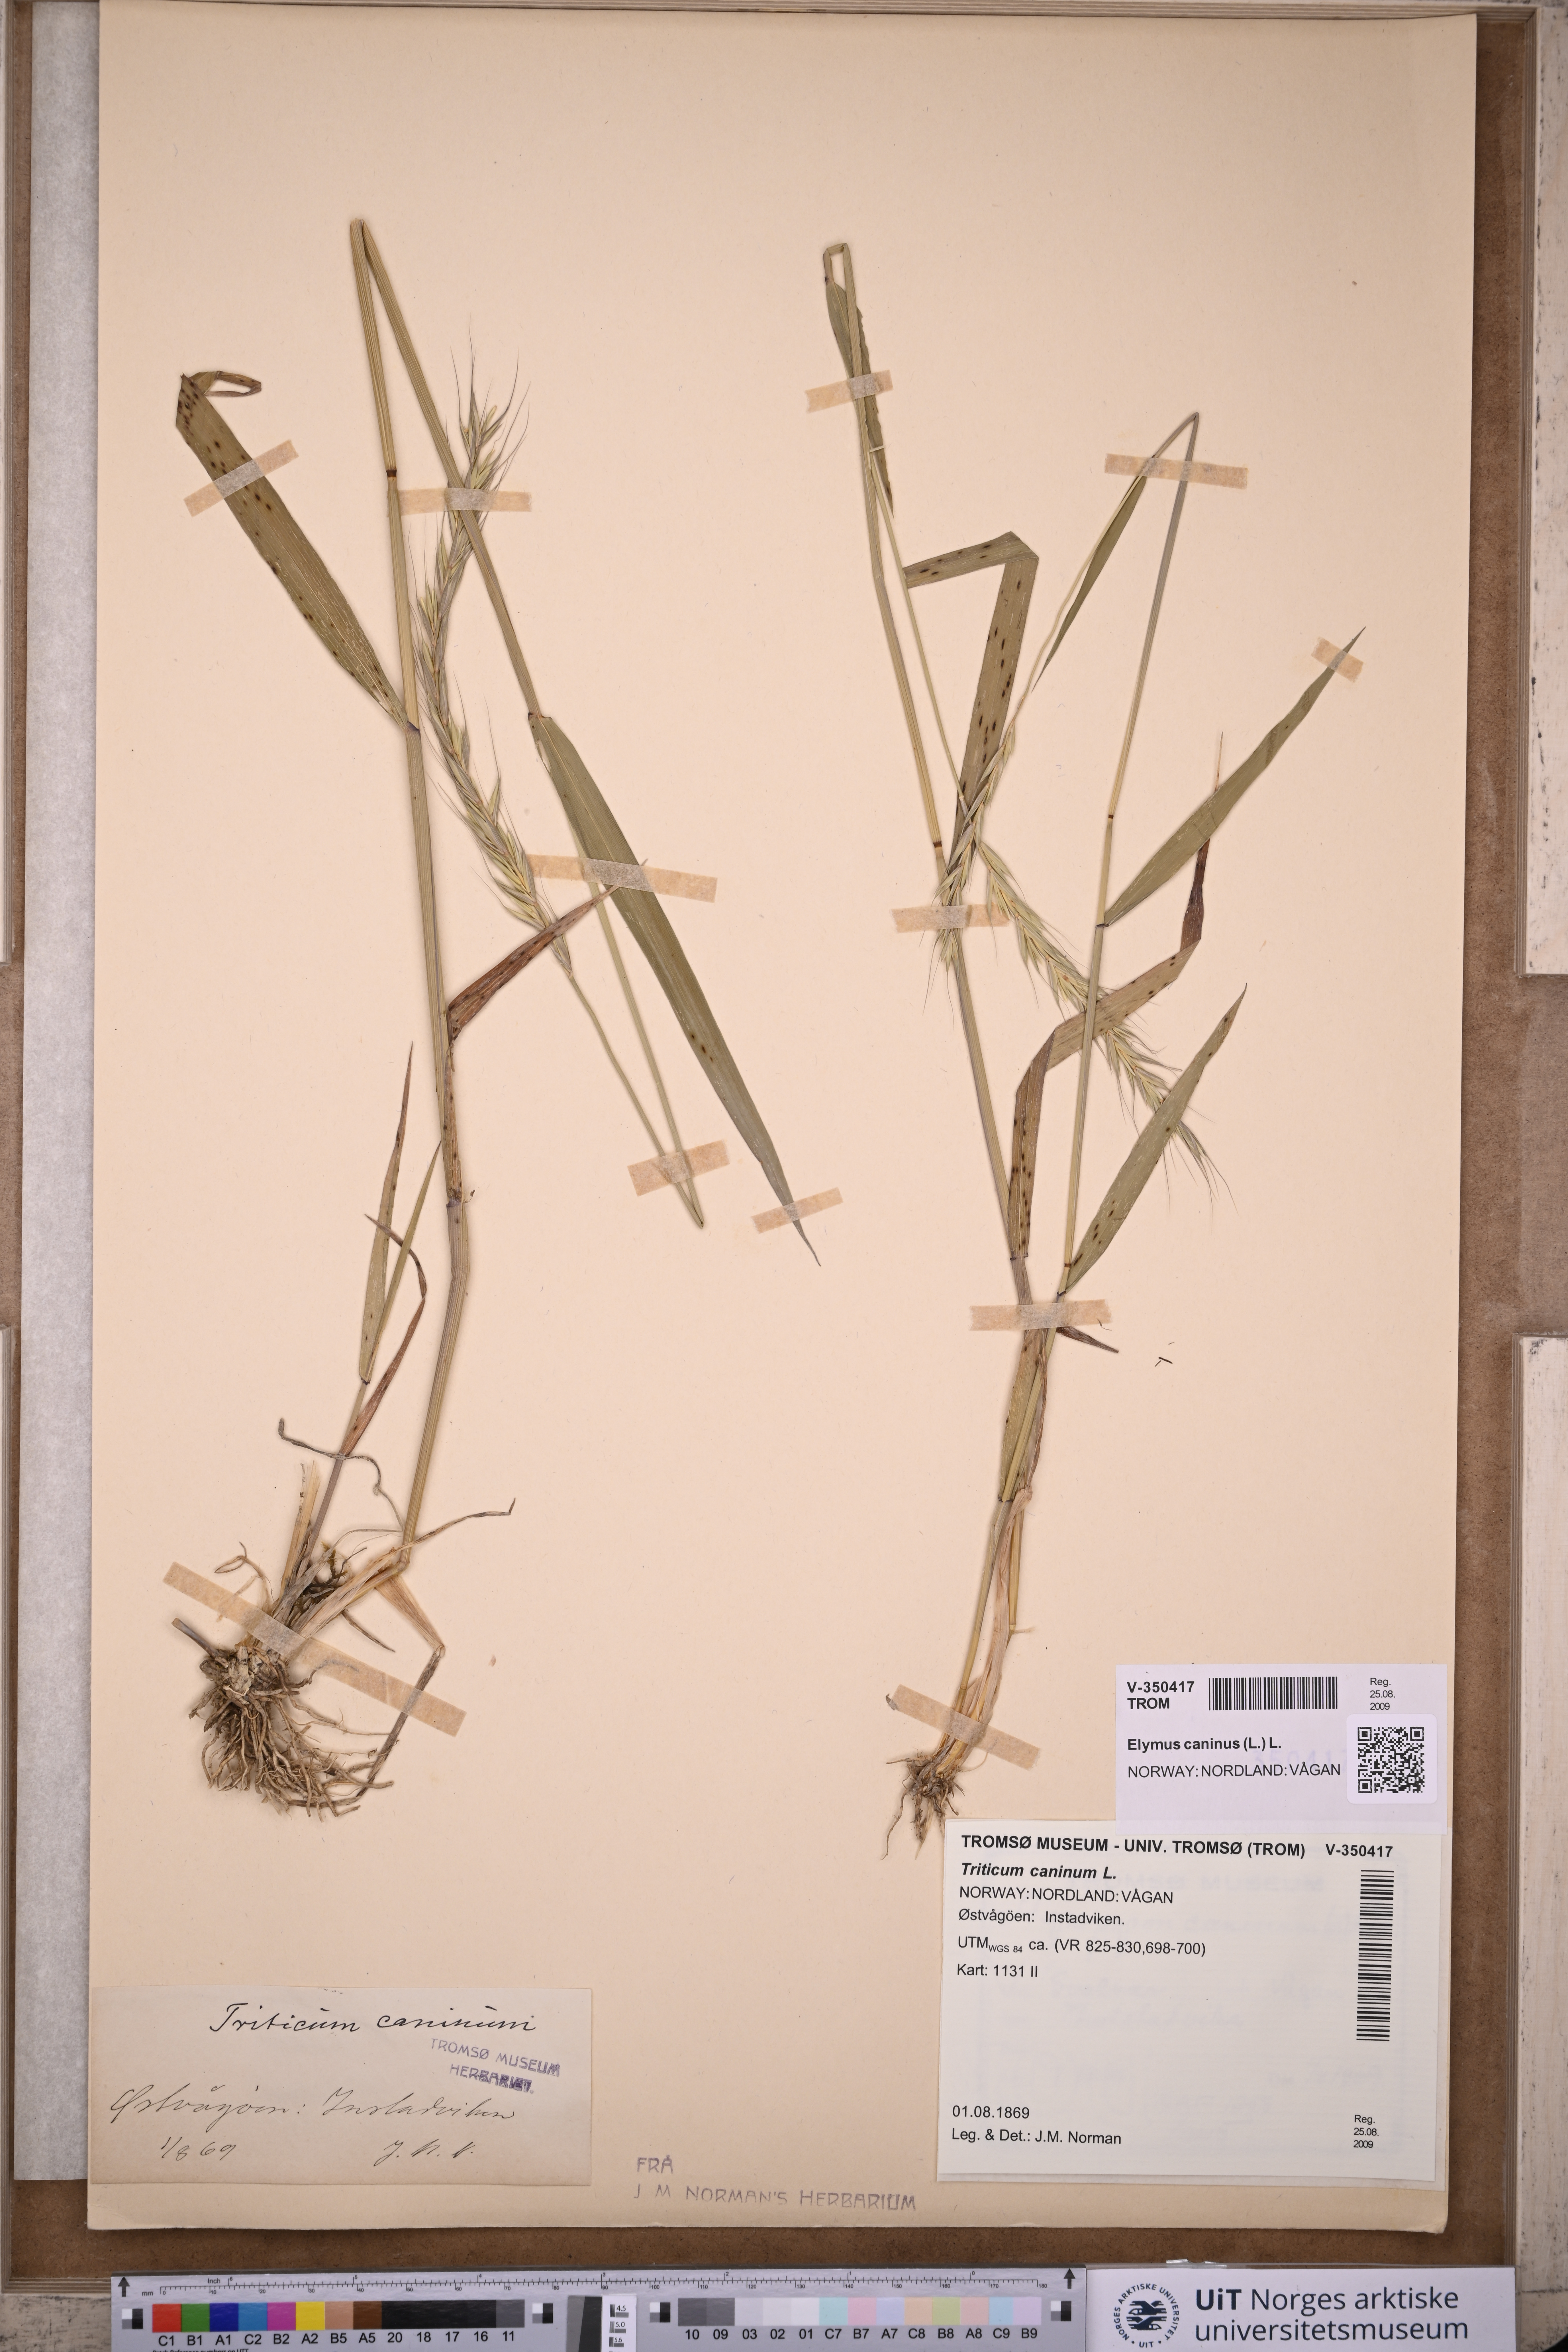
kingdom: Plantae
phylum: Tracheophyta
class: Liliopsida
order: Poales
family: Poaceae
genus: Elymus
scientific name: Elymus caninus
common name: Bearded couch
